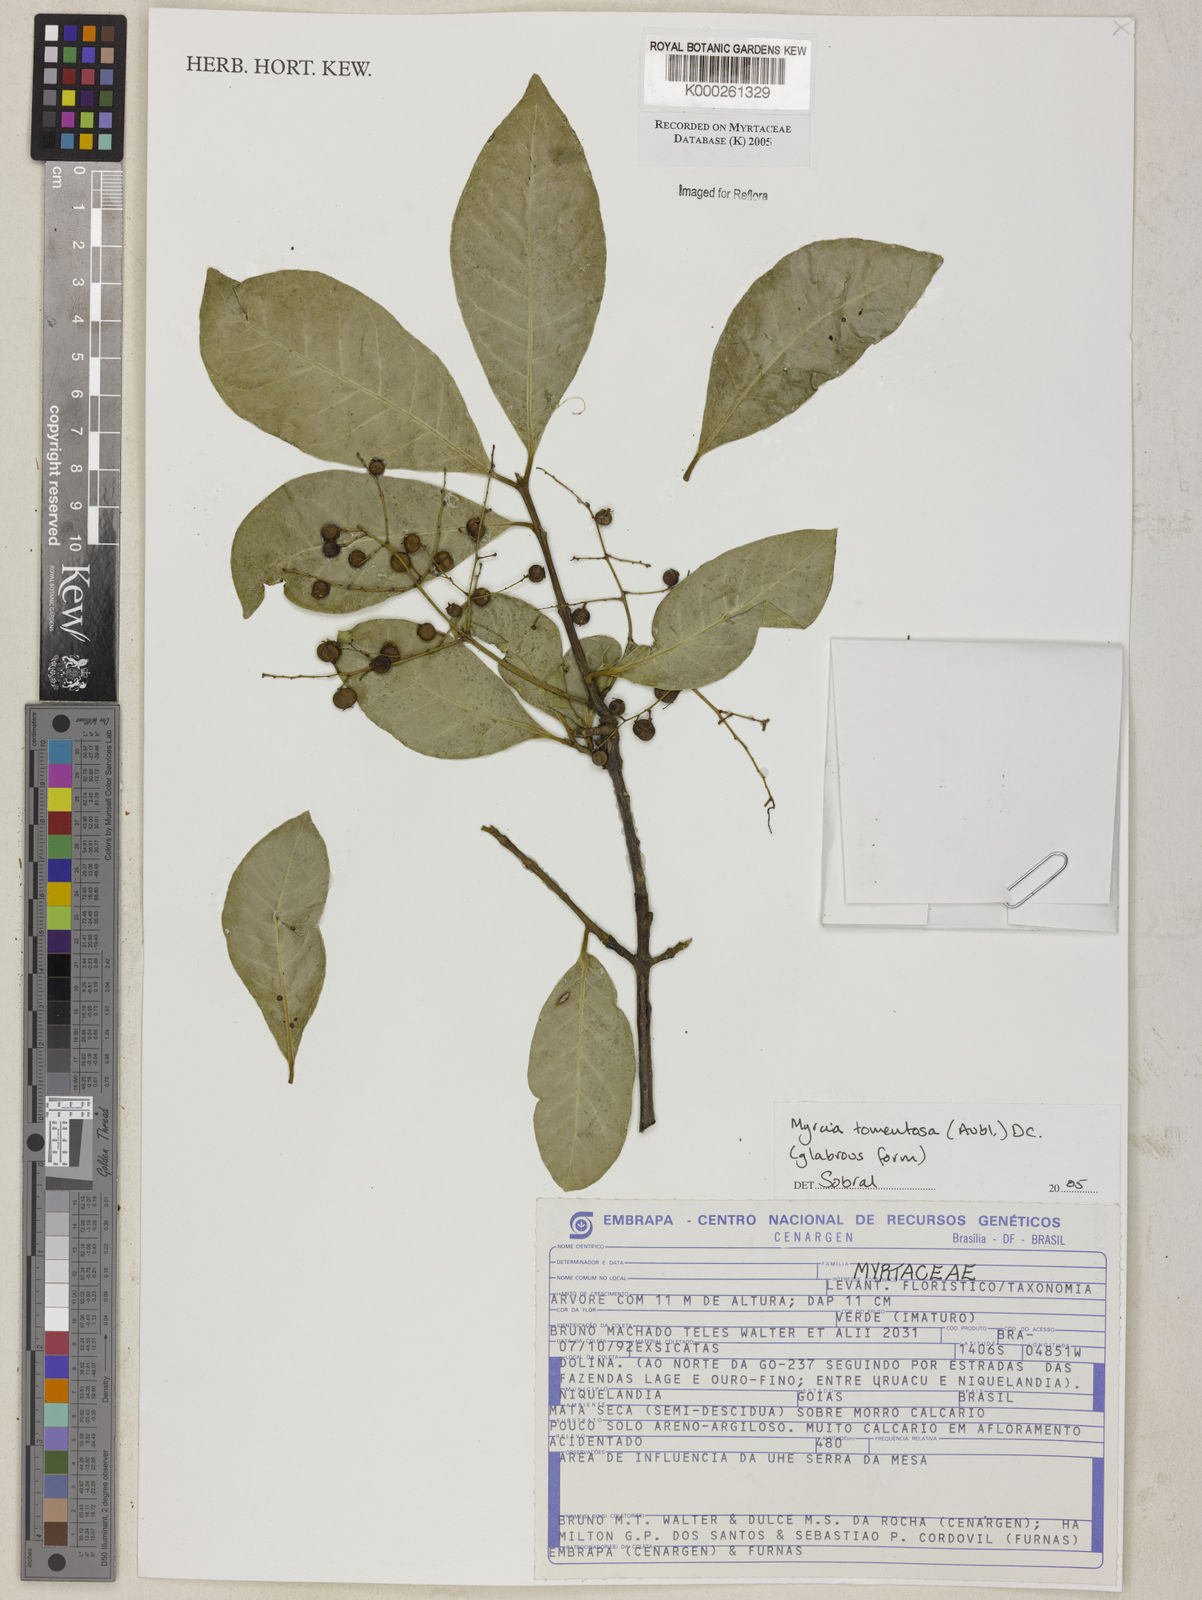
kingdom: Plantae
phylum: Tracheophyta
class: Magnoliopsida
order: Myrtales
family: Myrtaceae
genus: Myrcia
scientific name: Myrcia tomentosa
